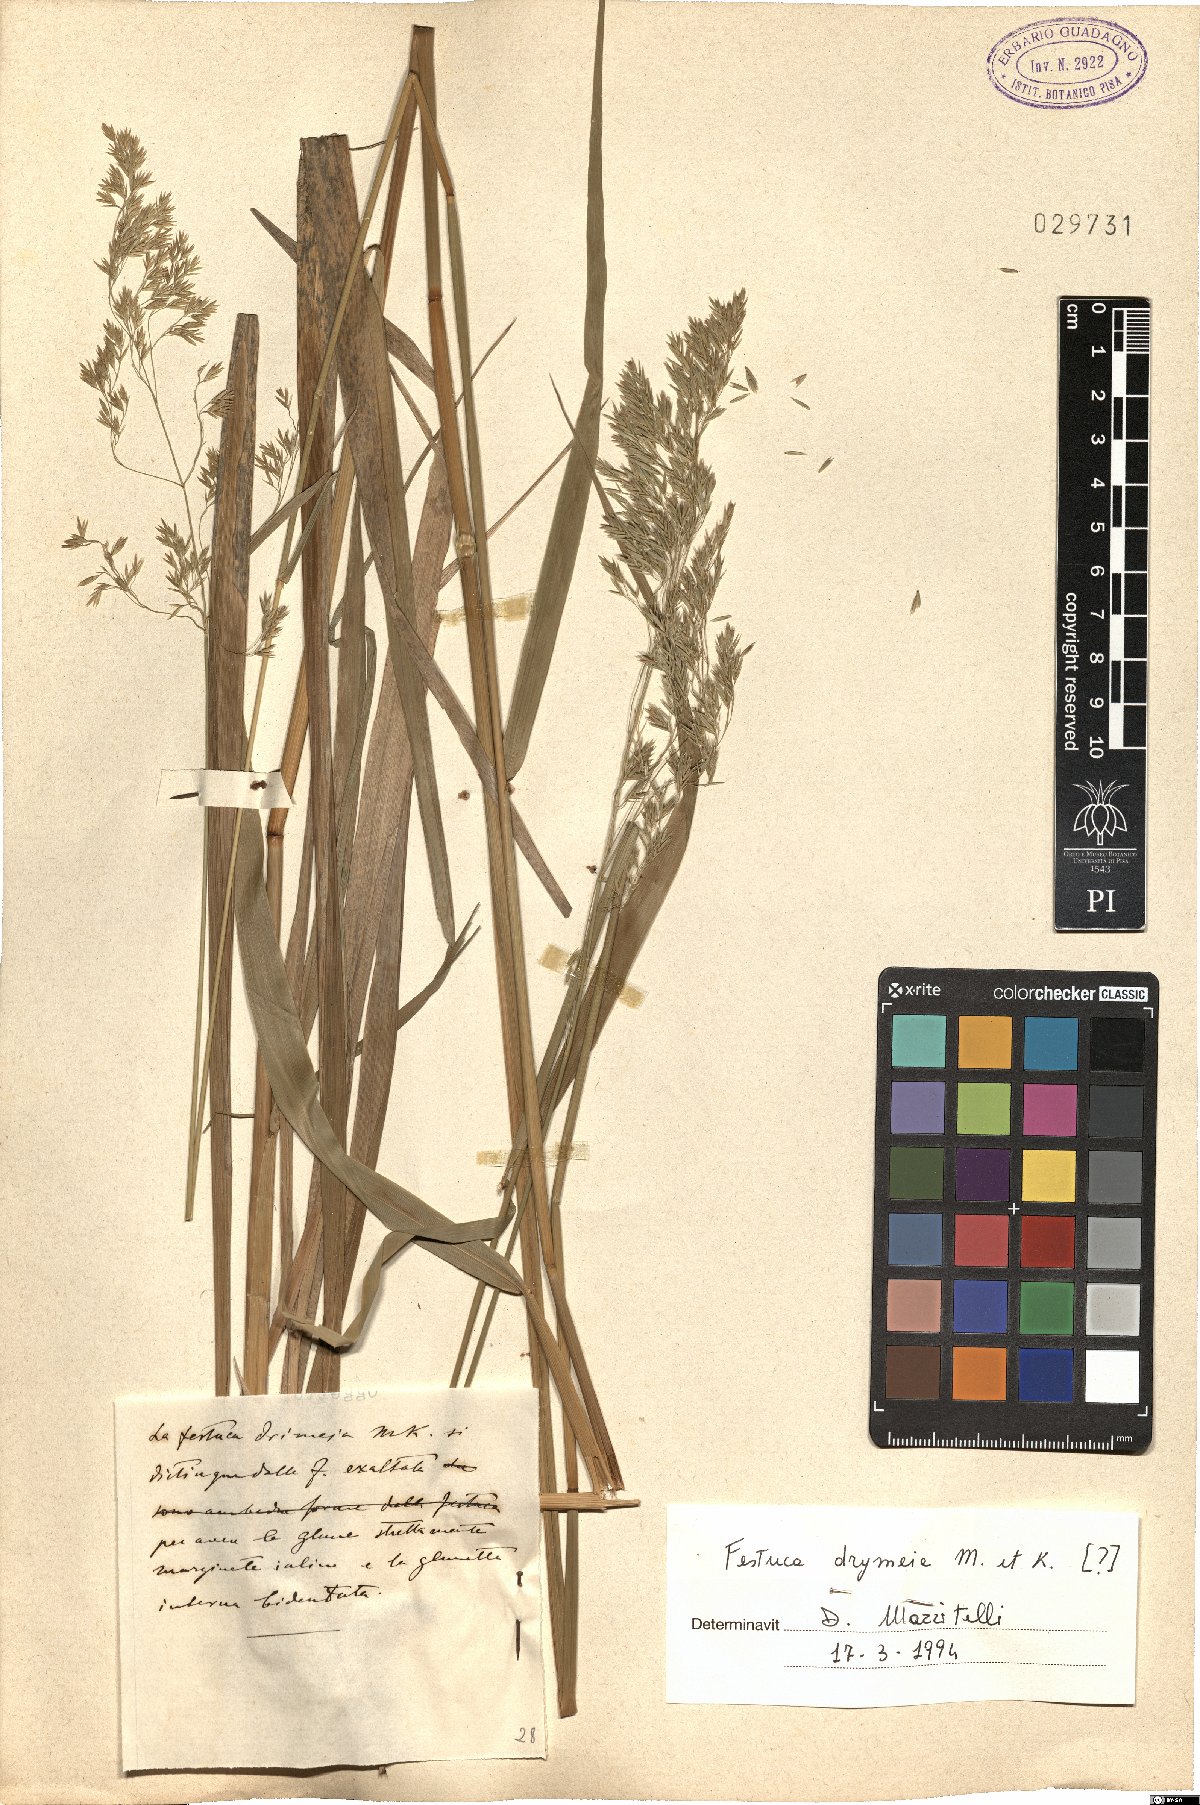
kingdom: Plantae
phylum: Tracheophyta
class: Liliopsida
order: Poales
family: Poaceae
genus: Festuca
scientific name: Festuca drymeja
